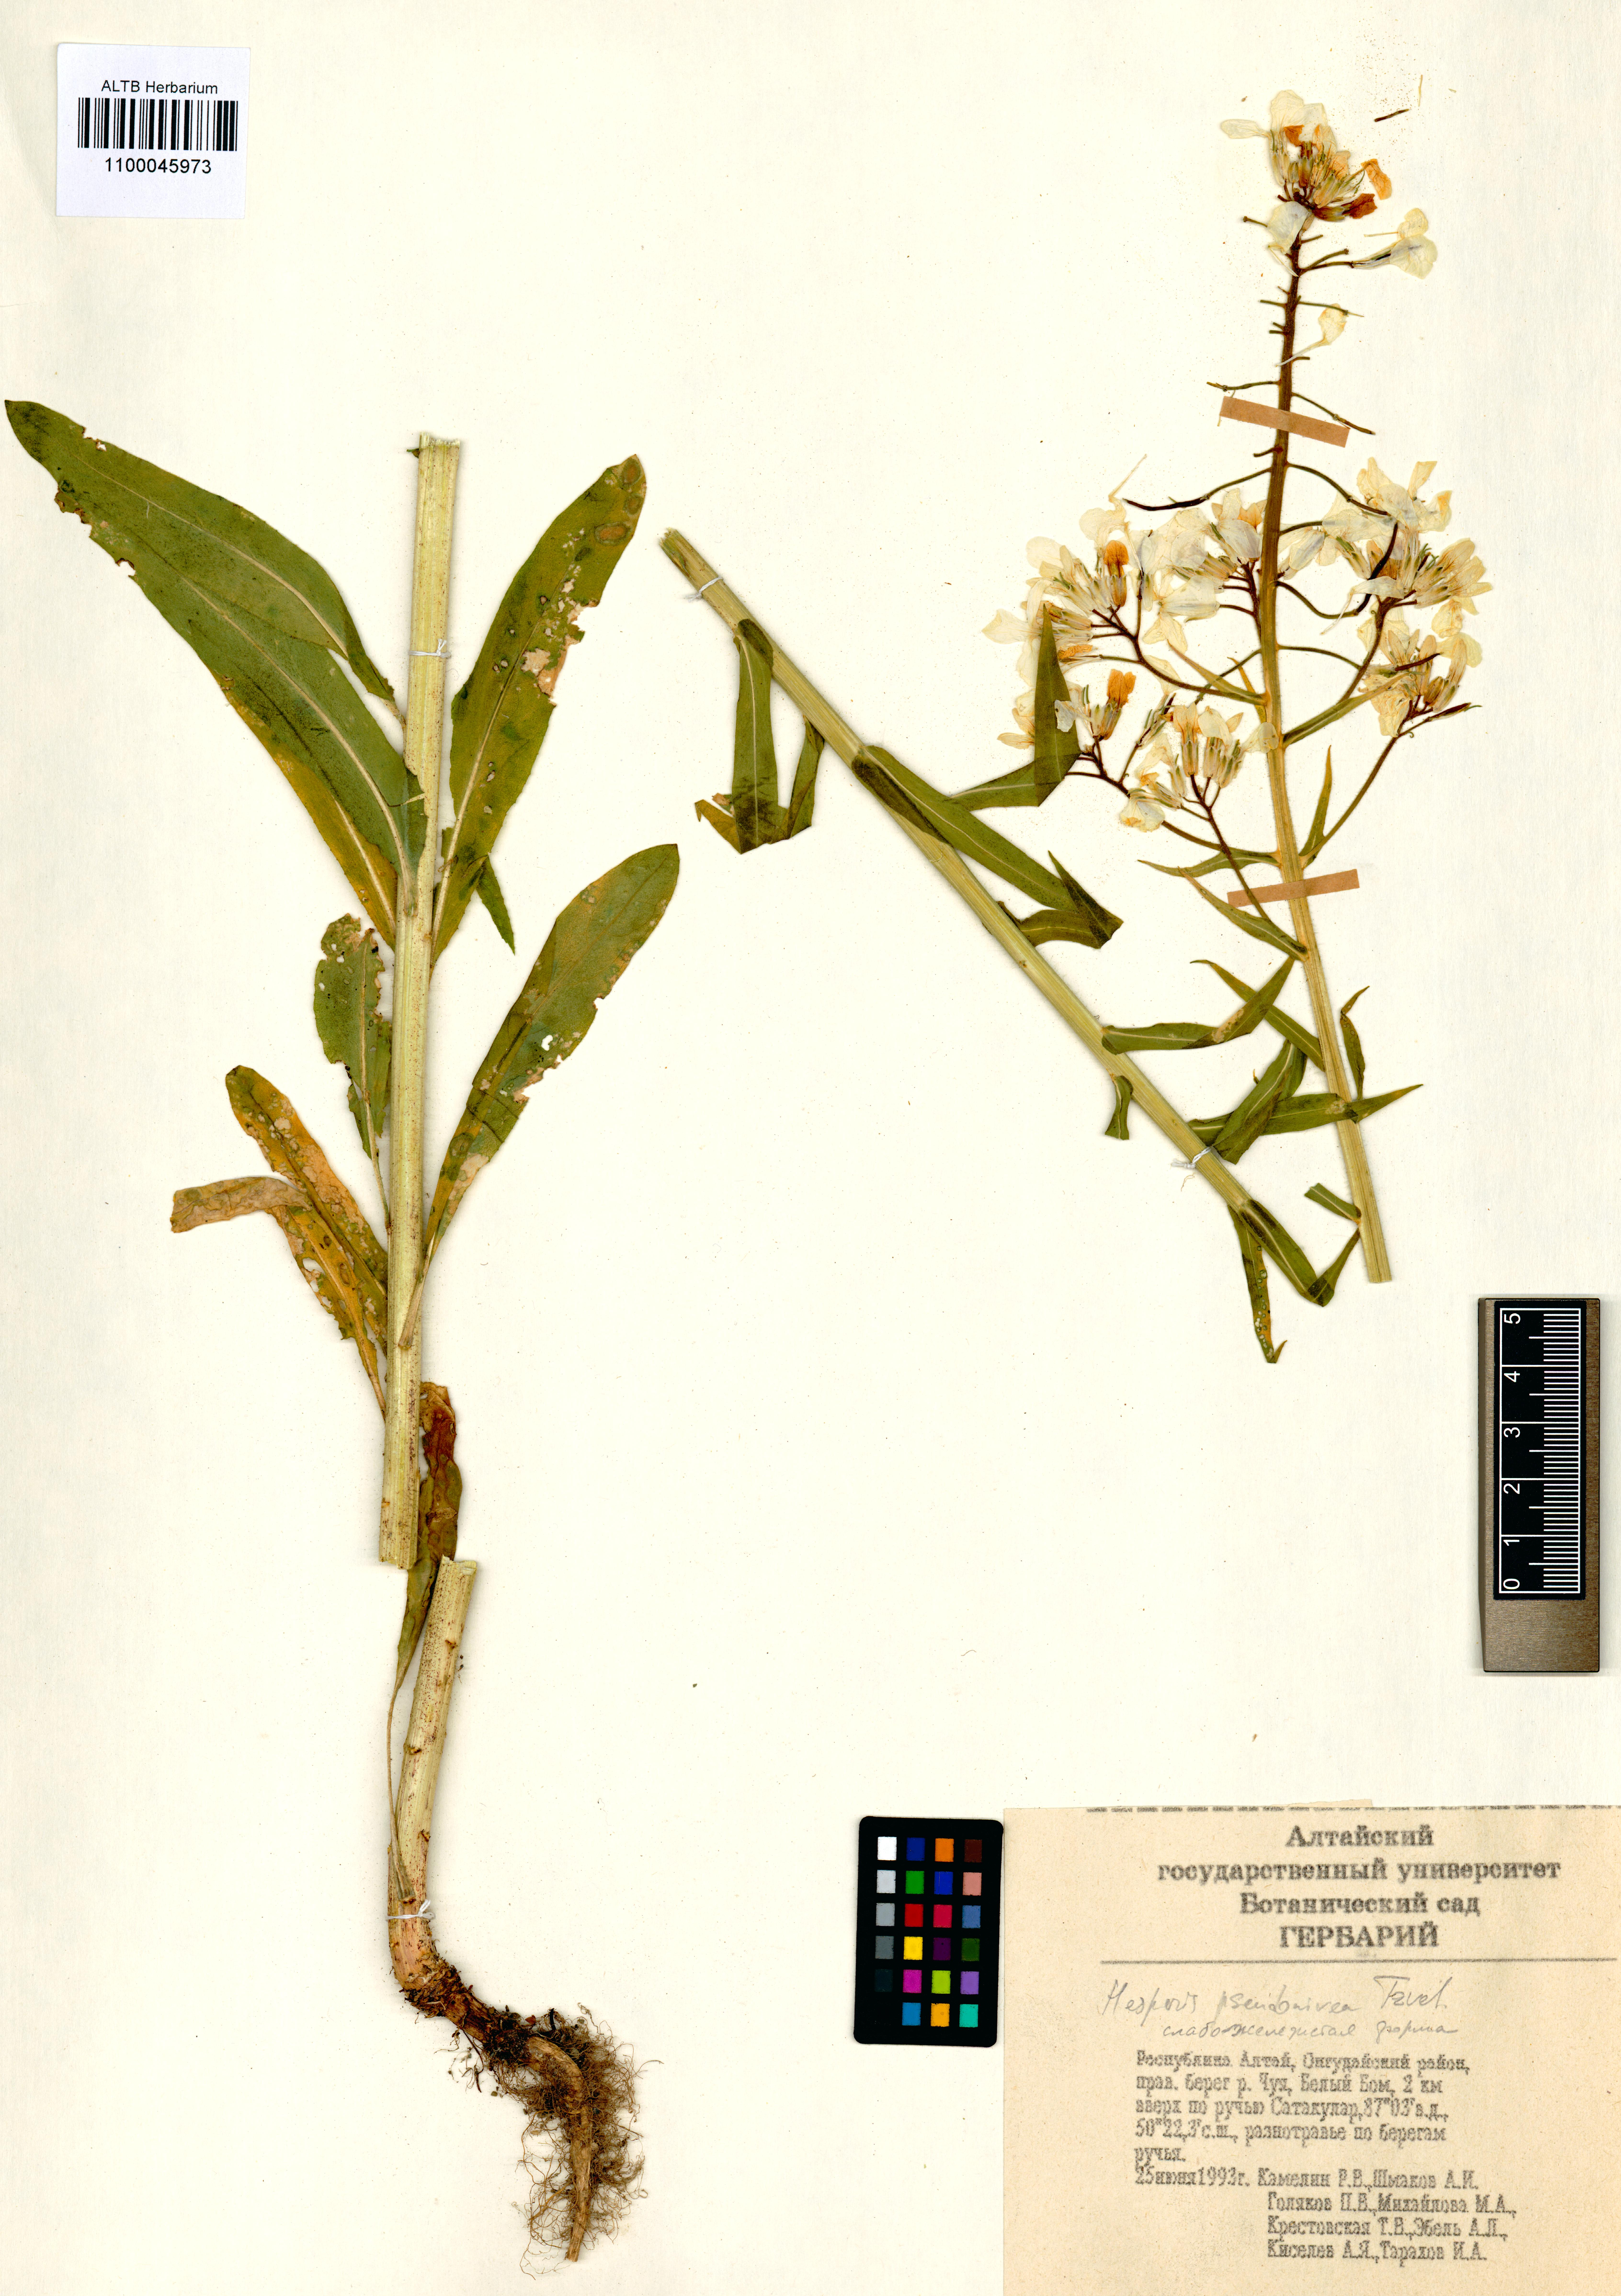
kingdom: Plantae
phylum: Tracheophyta
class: Magnoliopsida
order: Brassicales
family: Brassicaceae
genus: Hesperis
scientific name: Hesperis sibirica
